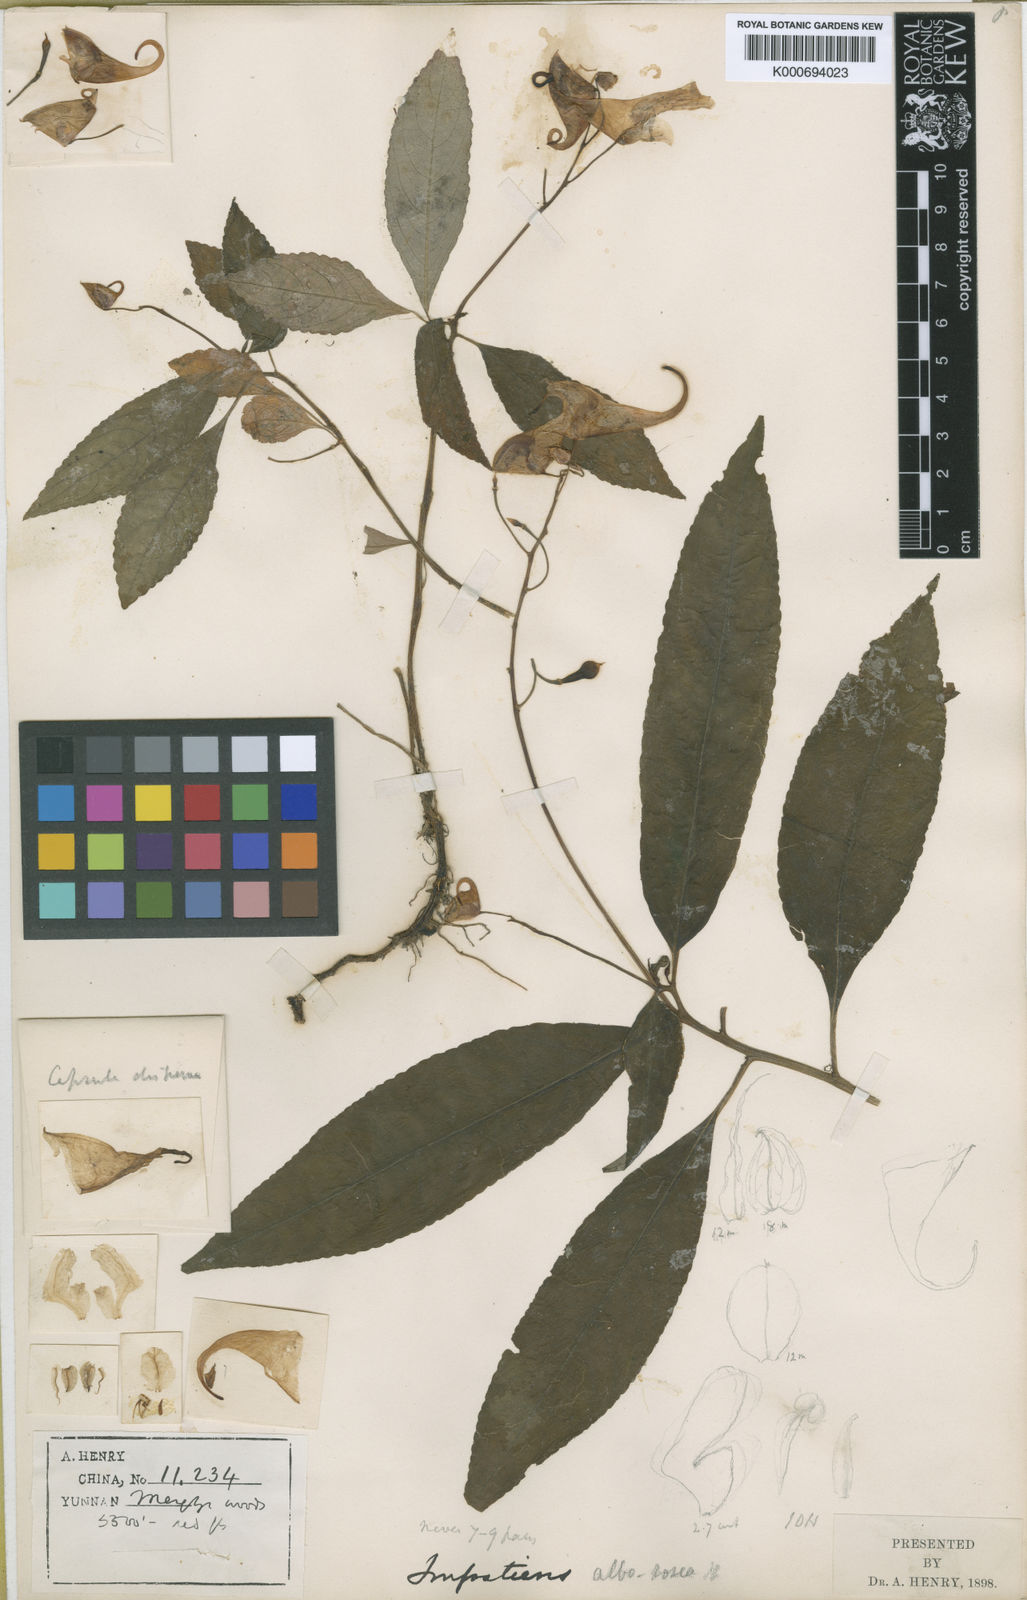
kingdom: Plantae
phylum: Tracheophyta
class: Magnoliopsida
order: Ericales
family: Balsaminaceae
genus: Impatiens
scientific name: Impatiens alborosea
